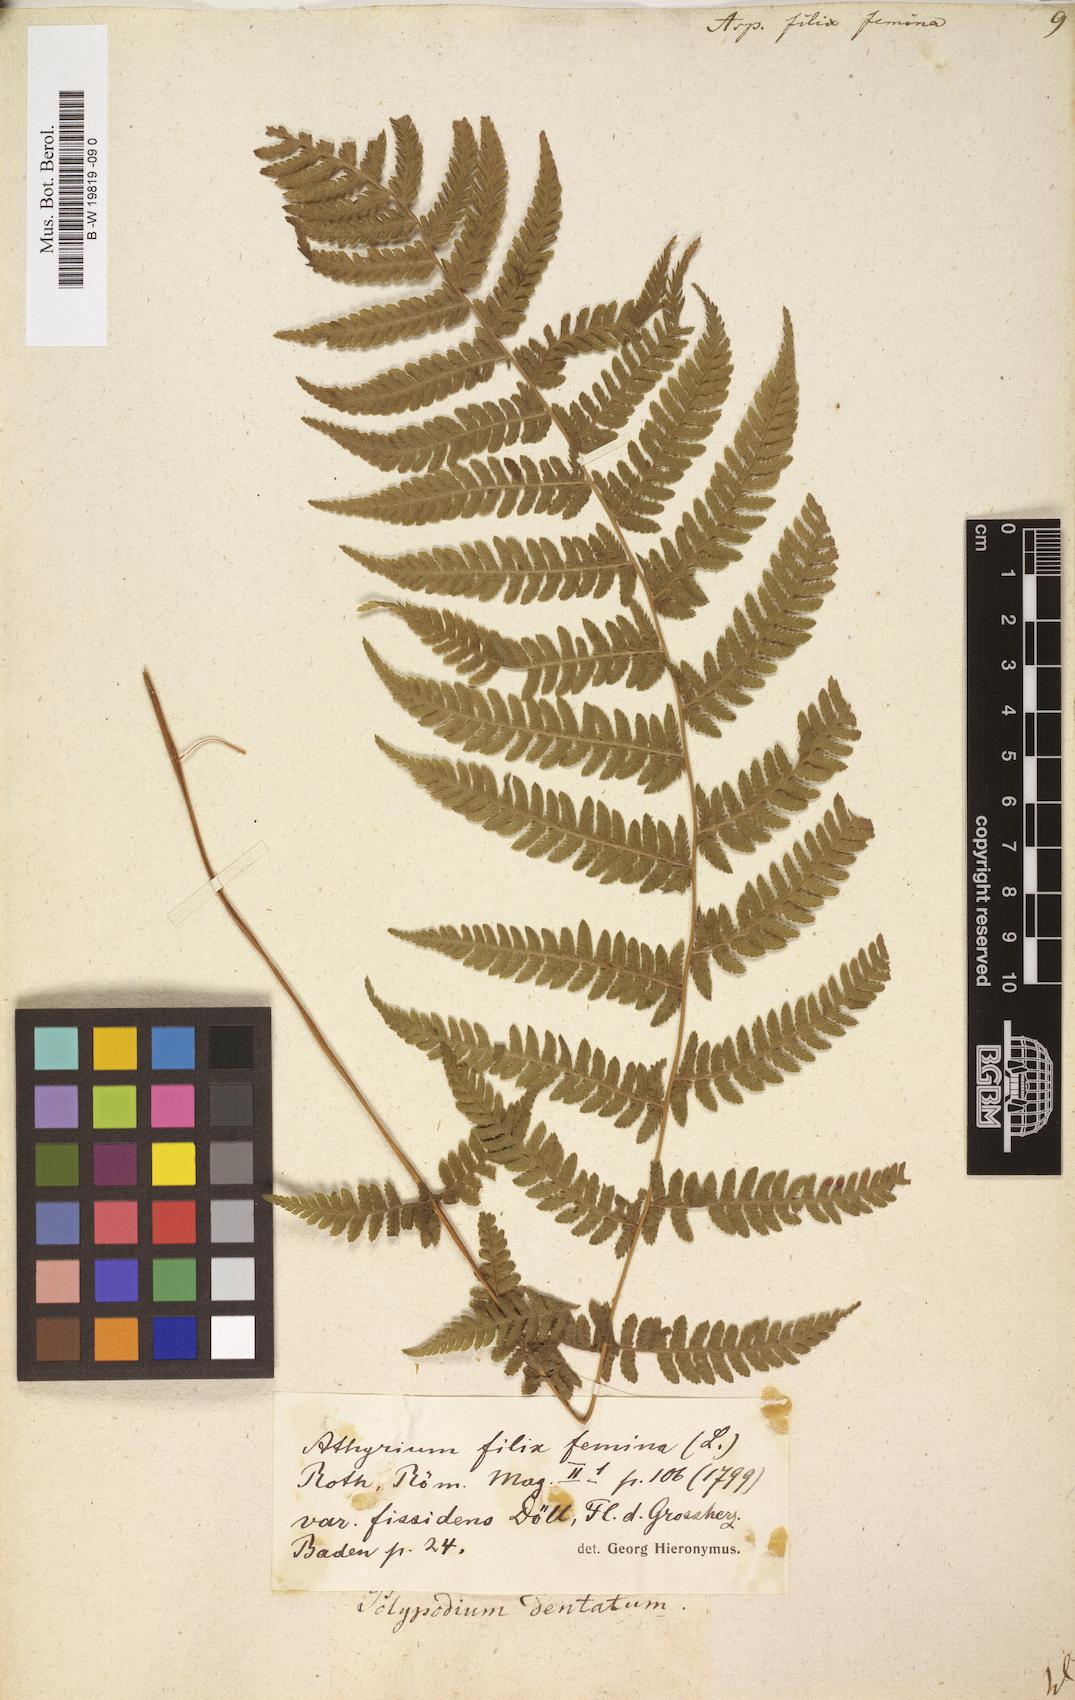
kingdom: Plantae
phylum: Tracheophyta
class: Polypodiopsida
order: Polypodiales
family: Athyriaceae
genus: Athyrium
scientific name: Athyrium filix-femina
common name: Lady fern
